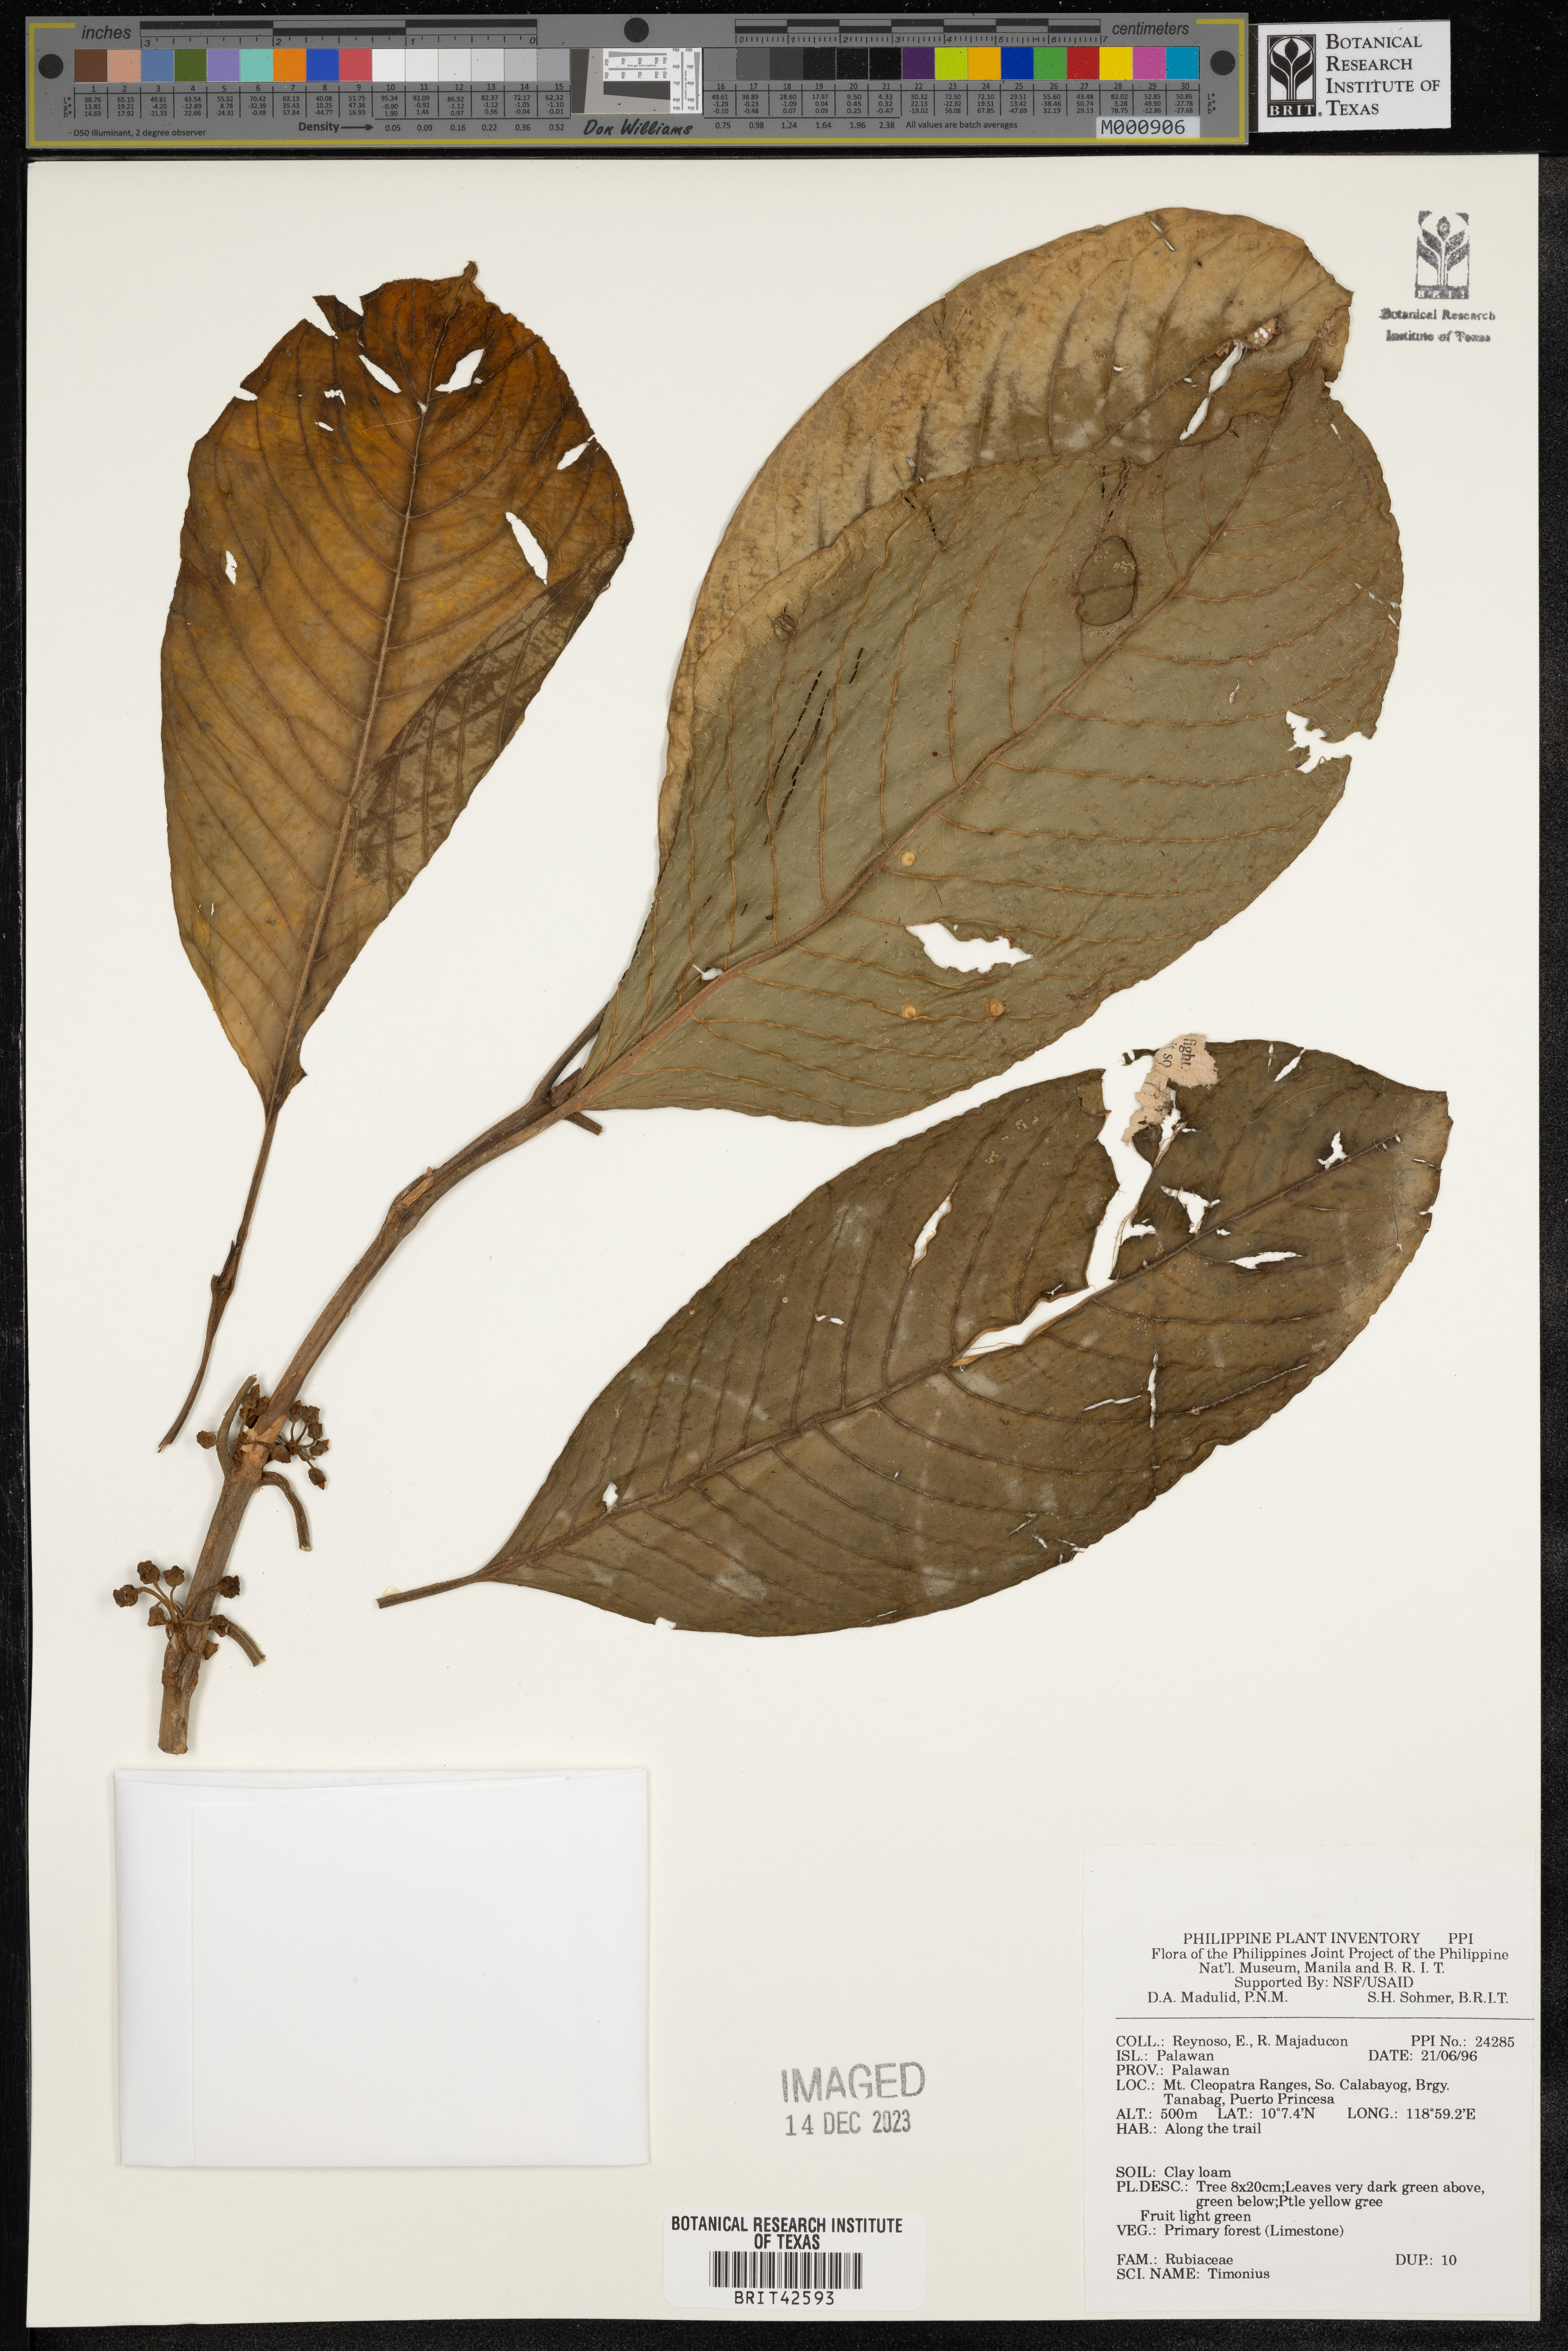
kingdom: Plantae
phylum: Tracheophyta
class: Magnoliopsida
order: Gentianales
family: Rubiaceae
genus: Timonius
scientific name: Timonius
